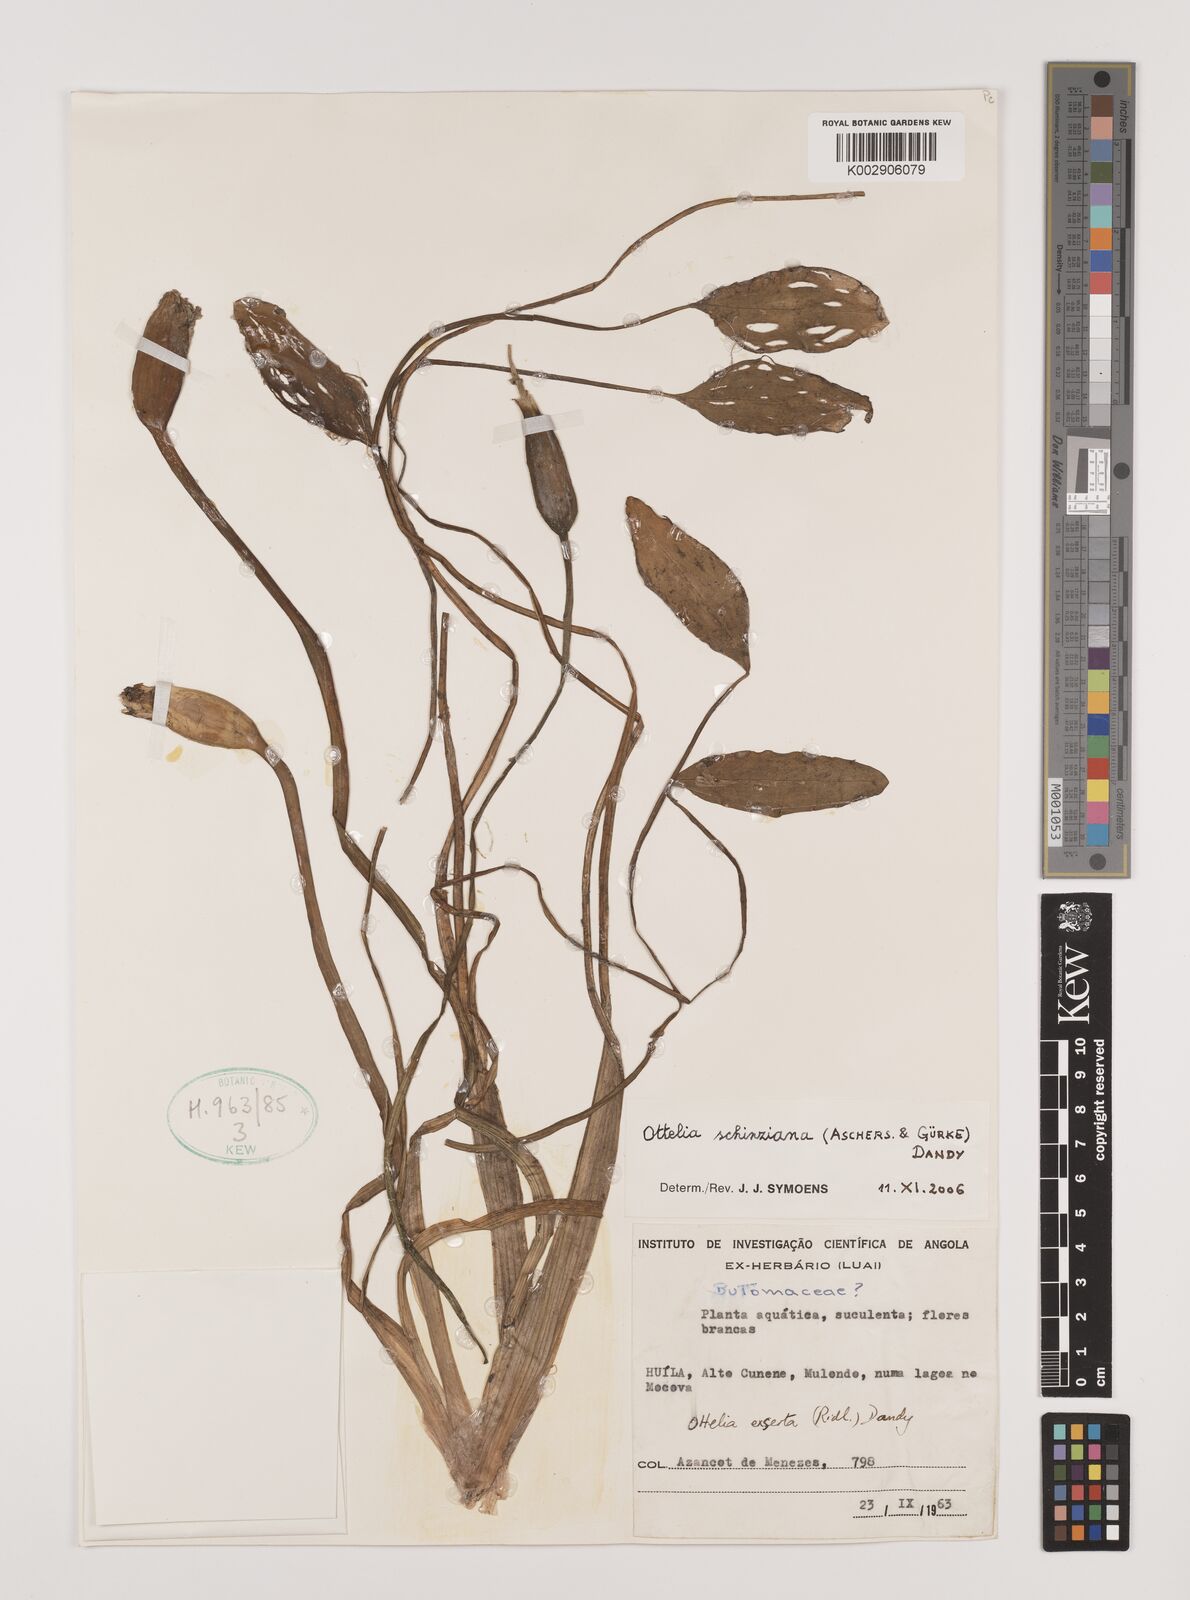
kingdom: Plantae
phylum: Tracheophyta
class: Liliopsida
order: Alismatales
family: Hydrocharitaceae
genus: Ottelia
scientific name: Ottelia exserta
